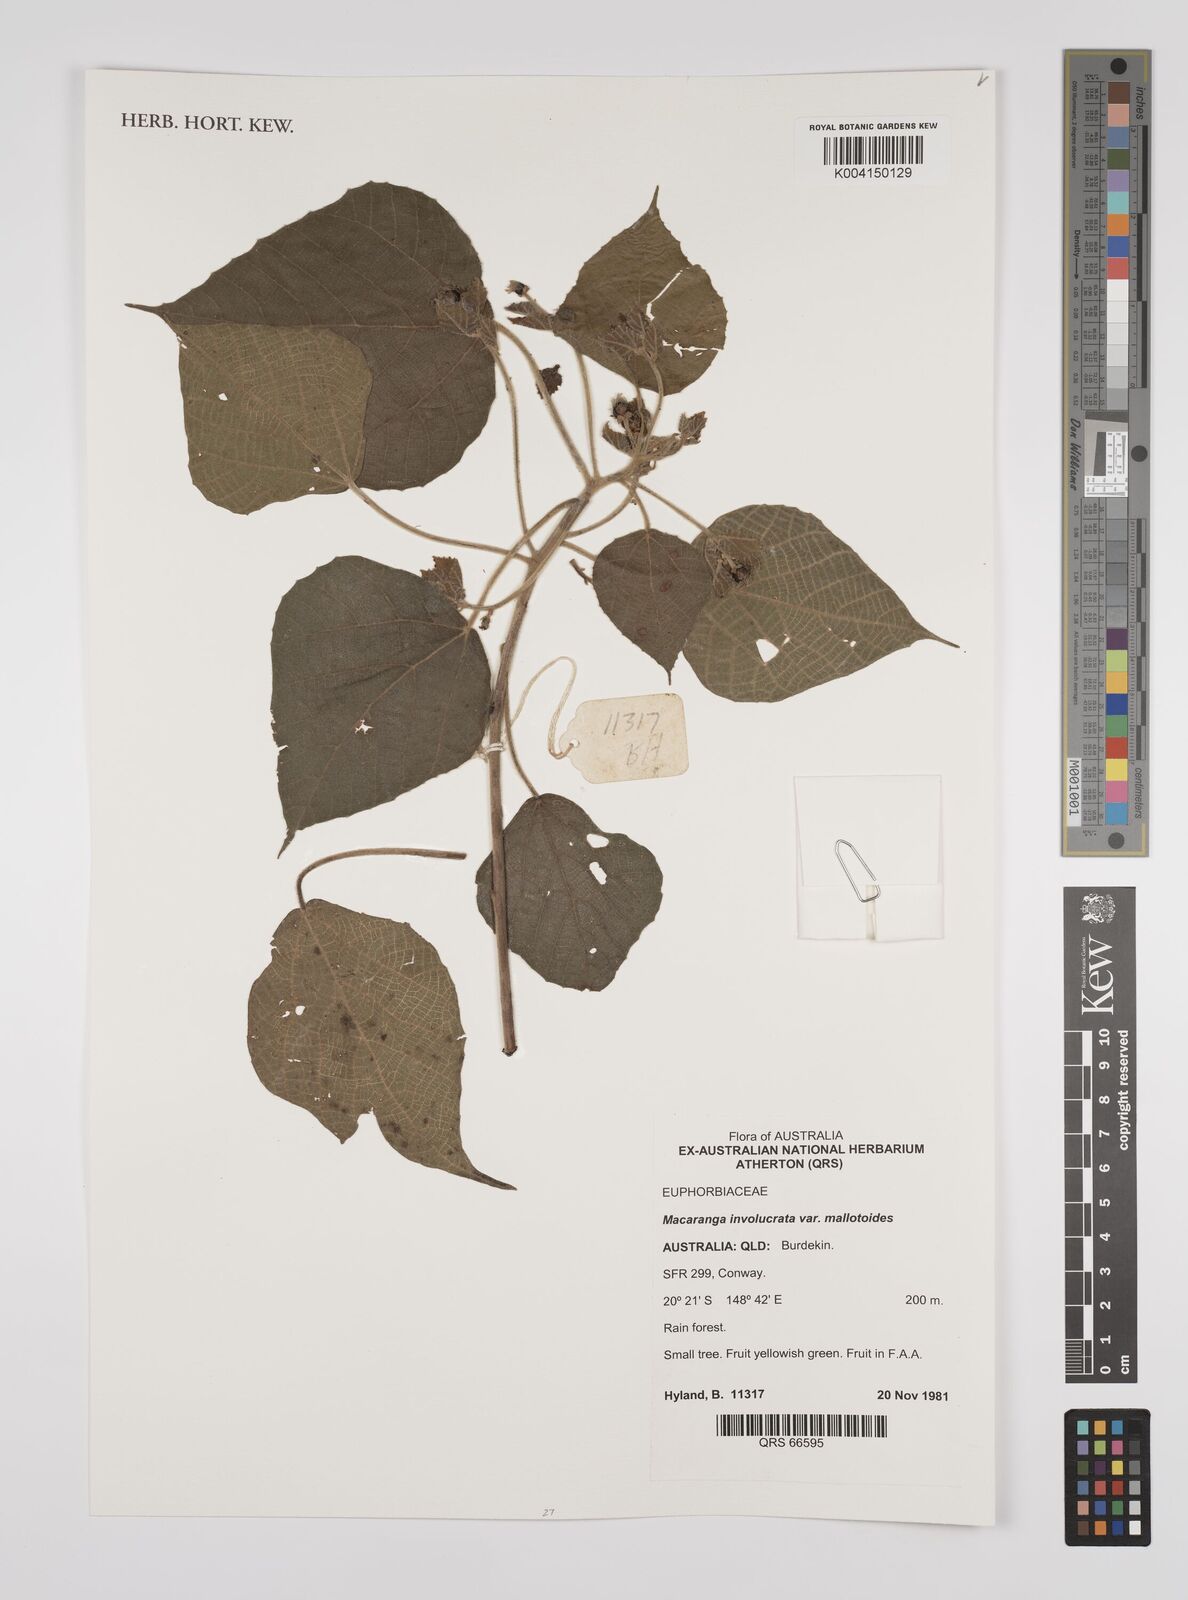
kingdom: Plantae
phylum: Tracheophyta
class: Magnoliopsida
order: Malpighiales
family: Euphorbiaceae
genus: Macaranga
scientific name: Macaranga involucrata
